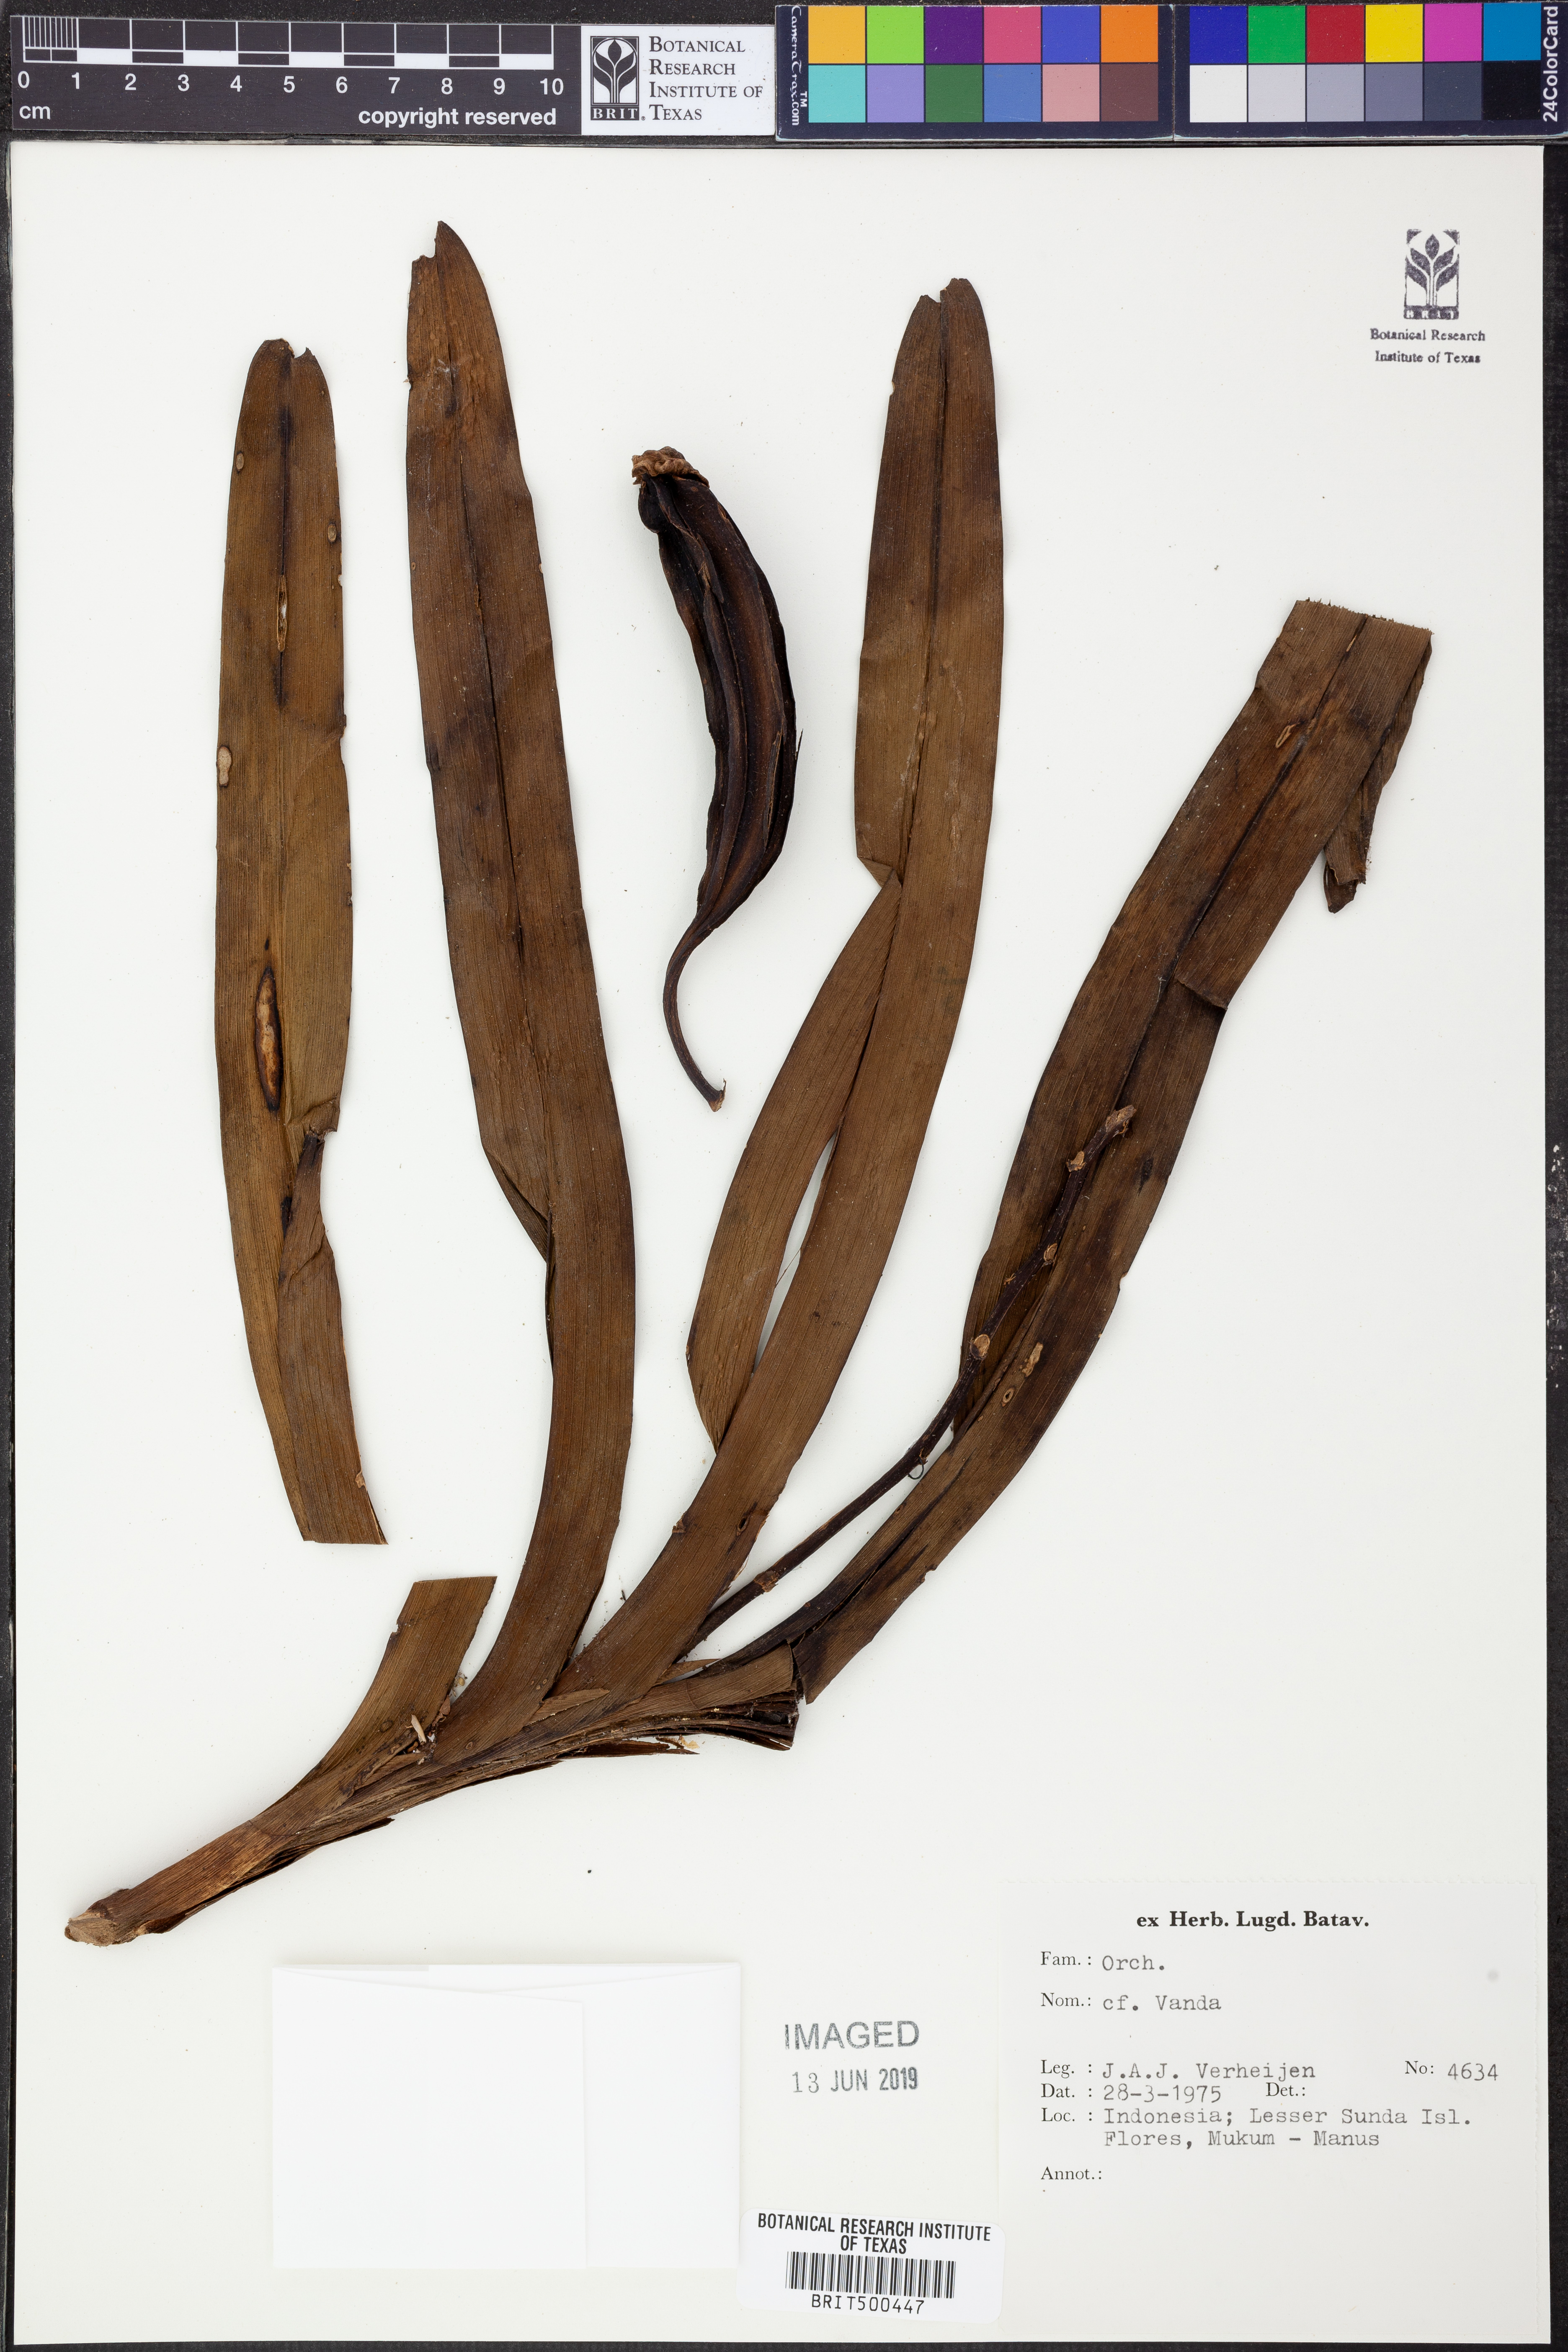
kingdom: Plantae
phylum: Tracheophyta
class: Liliopsida
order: Asparagales
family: Orchidaceae
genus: Vanda
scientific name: Vanda
